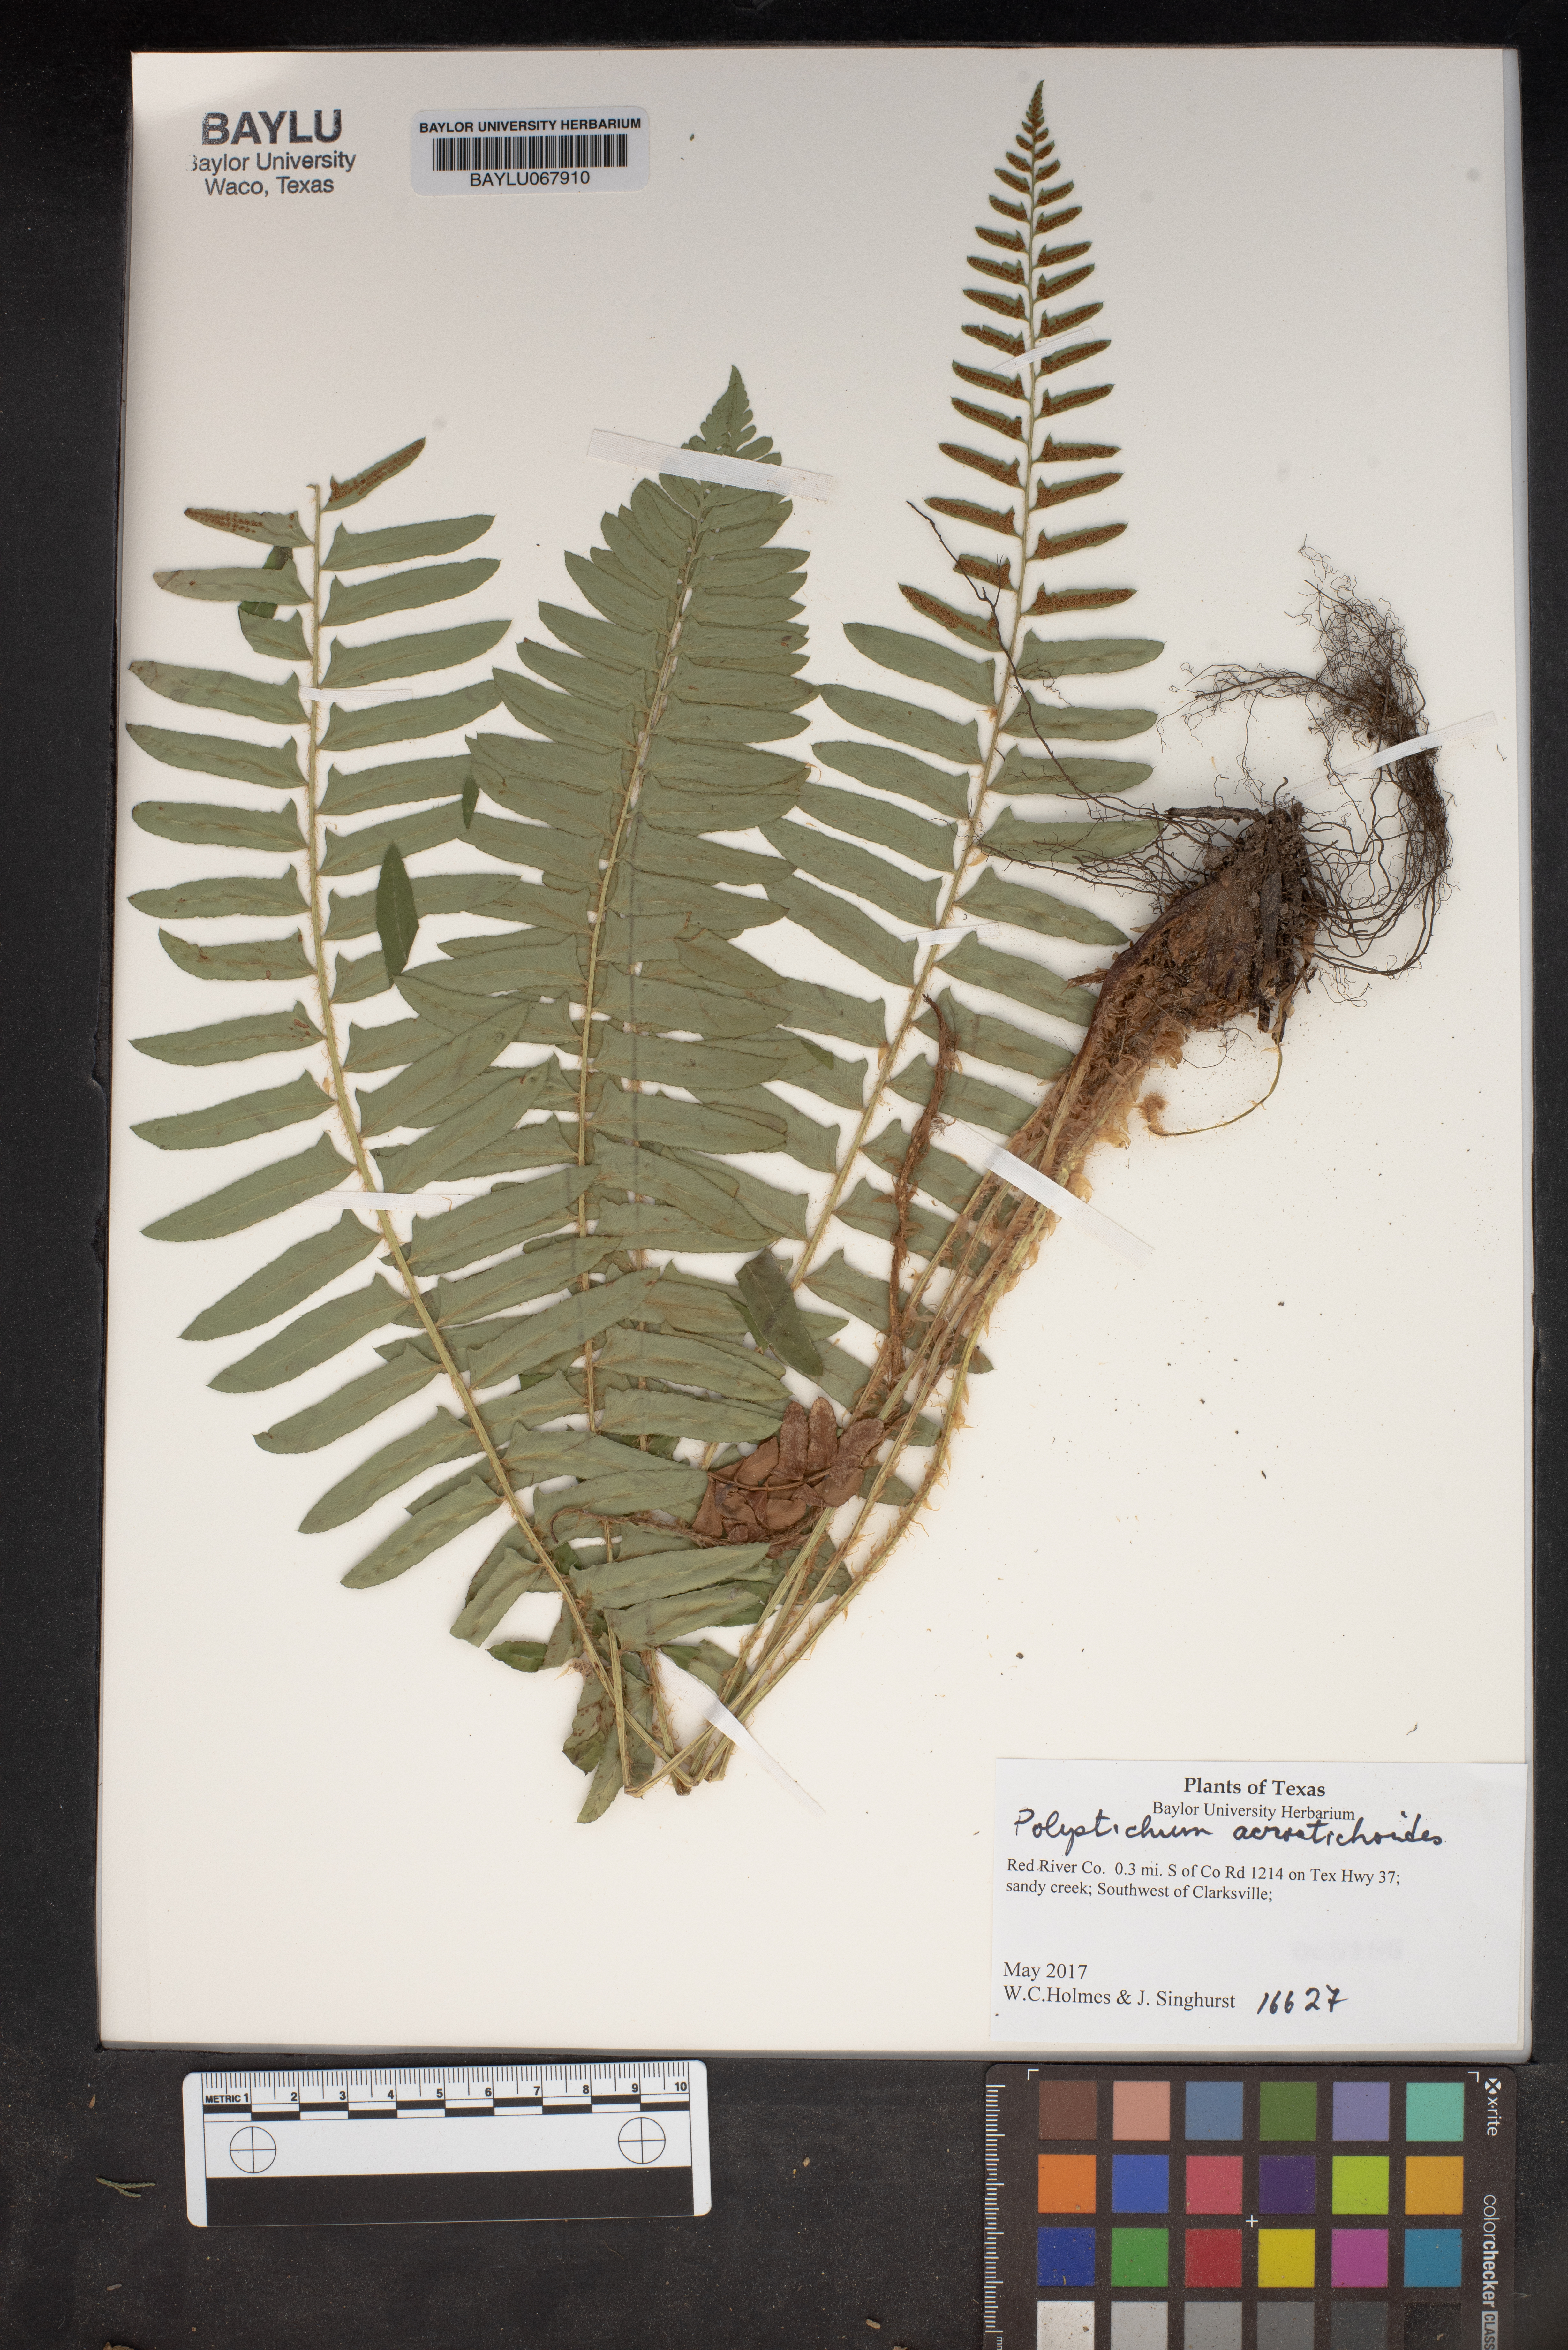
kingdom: Plantae
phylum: Tracheophyta
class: Polypodiopsida
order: Polypodiales
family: Dryopteridaceae
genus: Polystichum
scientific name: Polystichum acrostichoides
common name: Christmas fern
